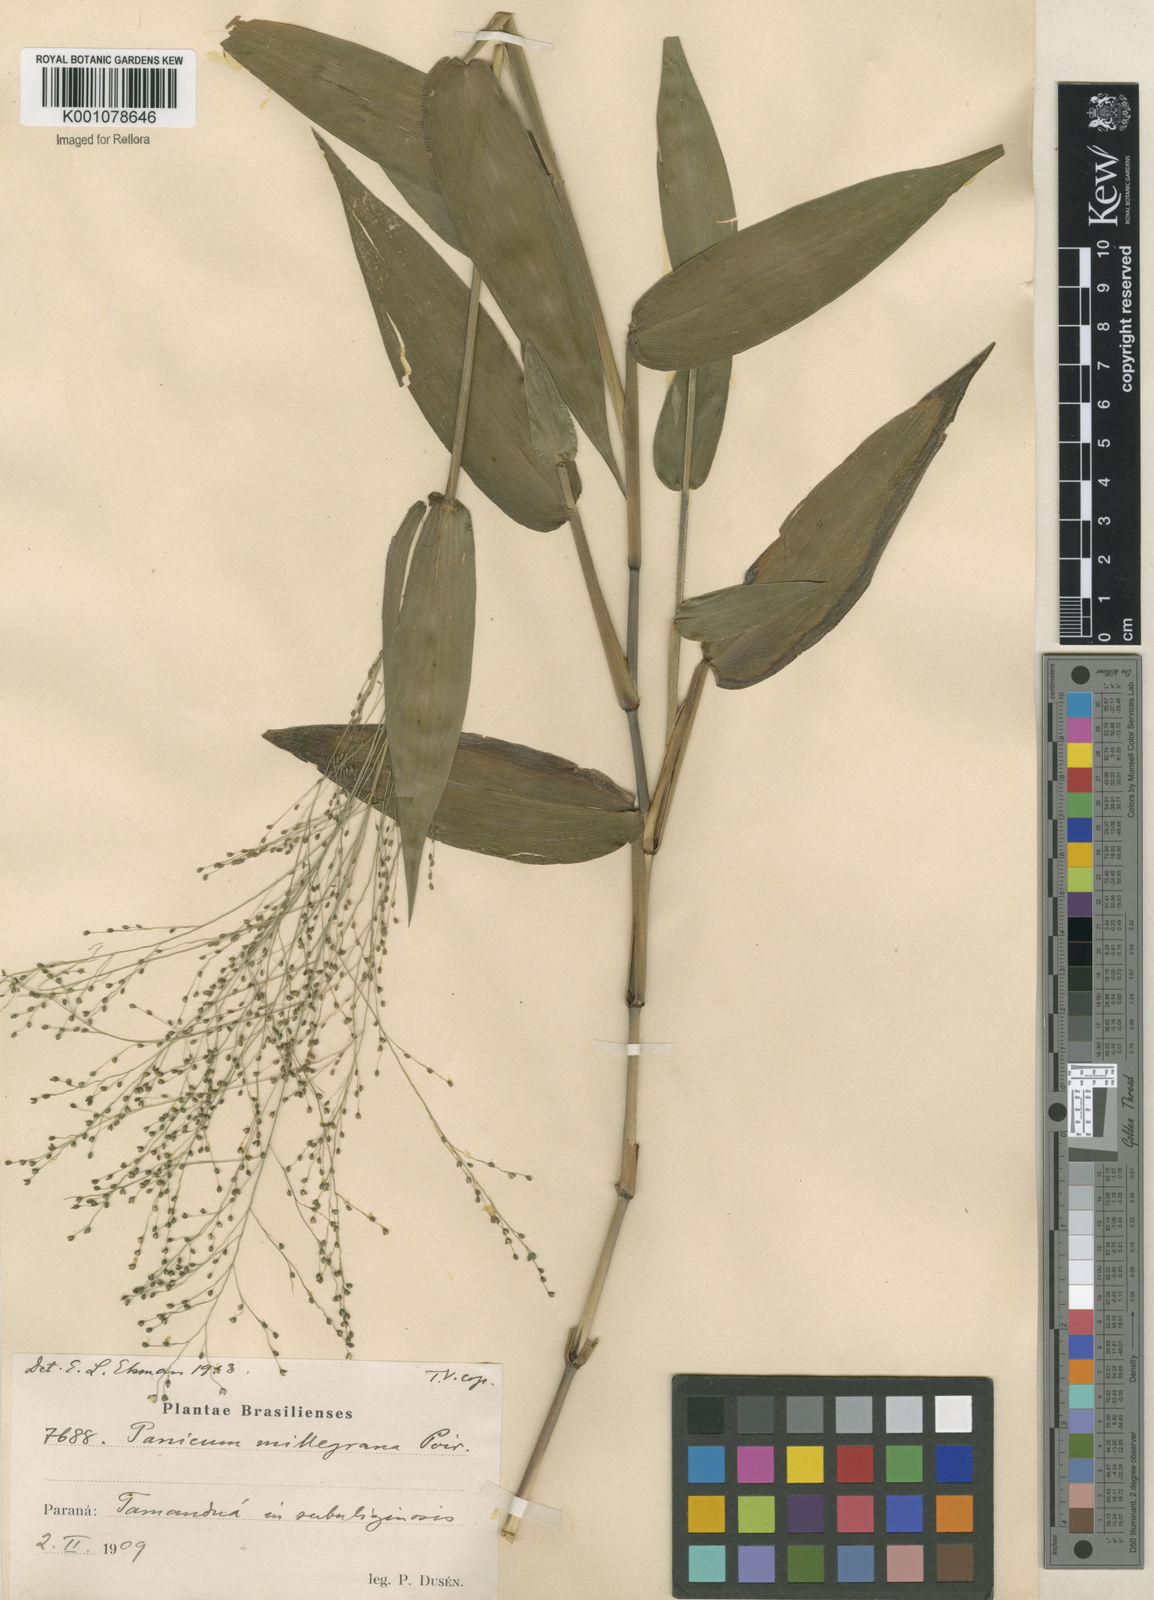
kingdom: Plantae
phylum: Tracheophyta
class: Liliopsida
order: Poales
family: Poaceae
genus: Panicum
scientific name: Panicum millegrana
